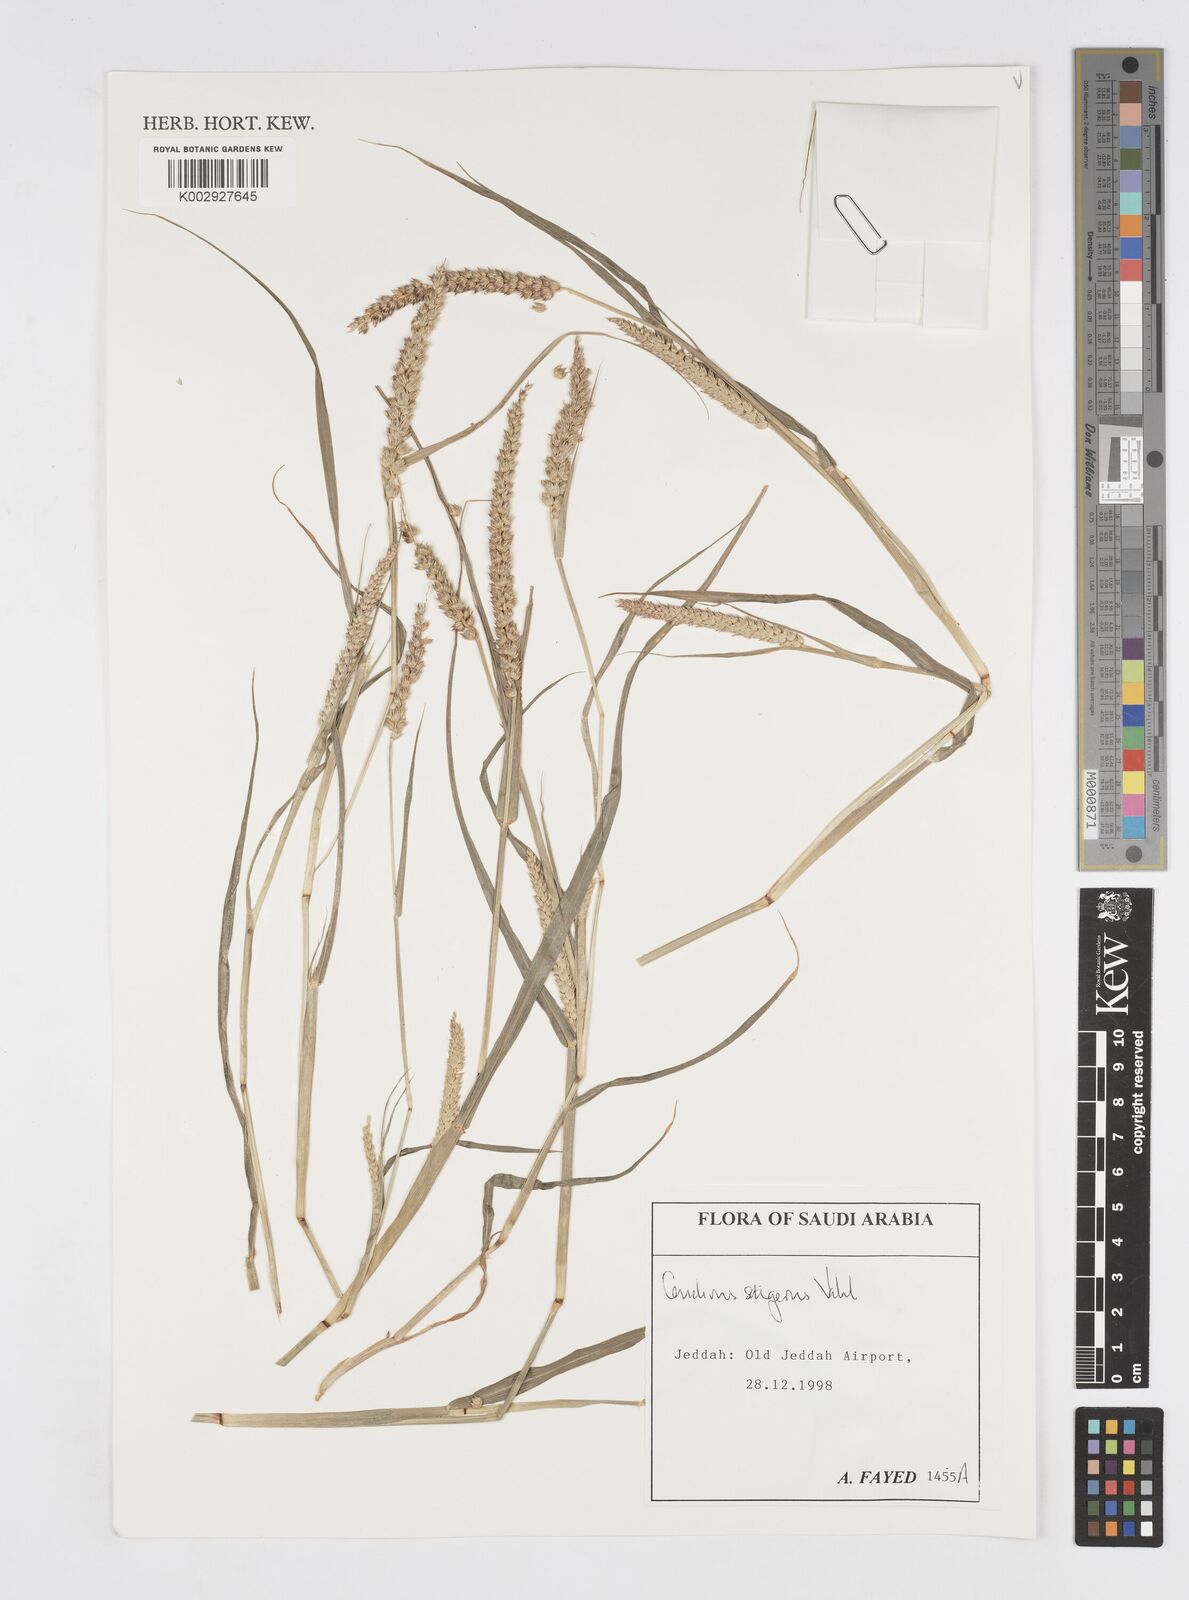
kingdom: Plantae
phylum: Tracheophyta
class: Liliopsida
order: Poales
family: Poaceae
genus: Cenchrus
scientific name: Cenchrus setigerus
